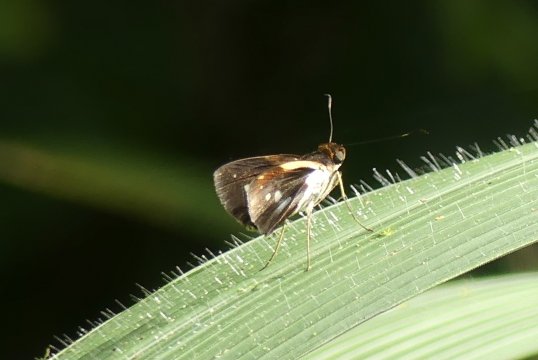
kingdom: Animalia
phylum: Arthropoda
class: Insecta
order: Lepidoptera
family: Hesperiidae
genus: Justinia
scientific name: Justinia norda
